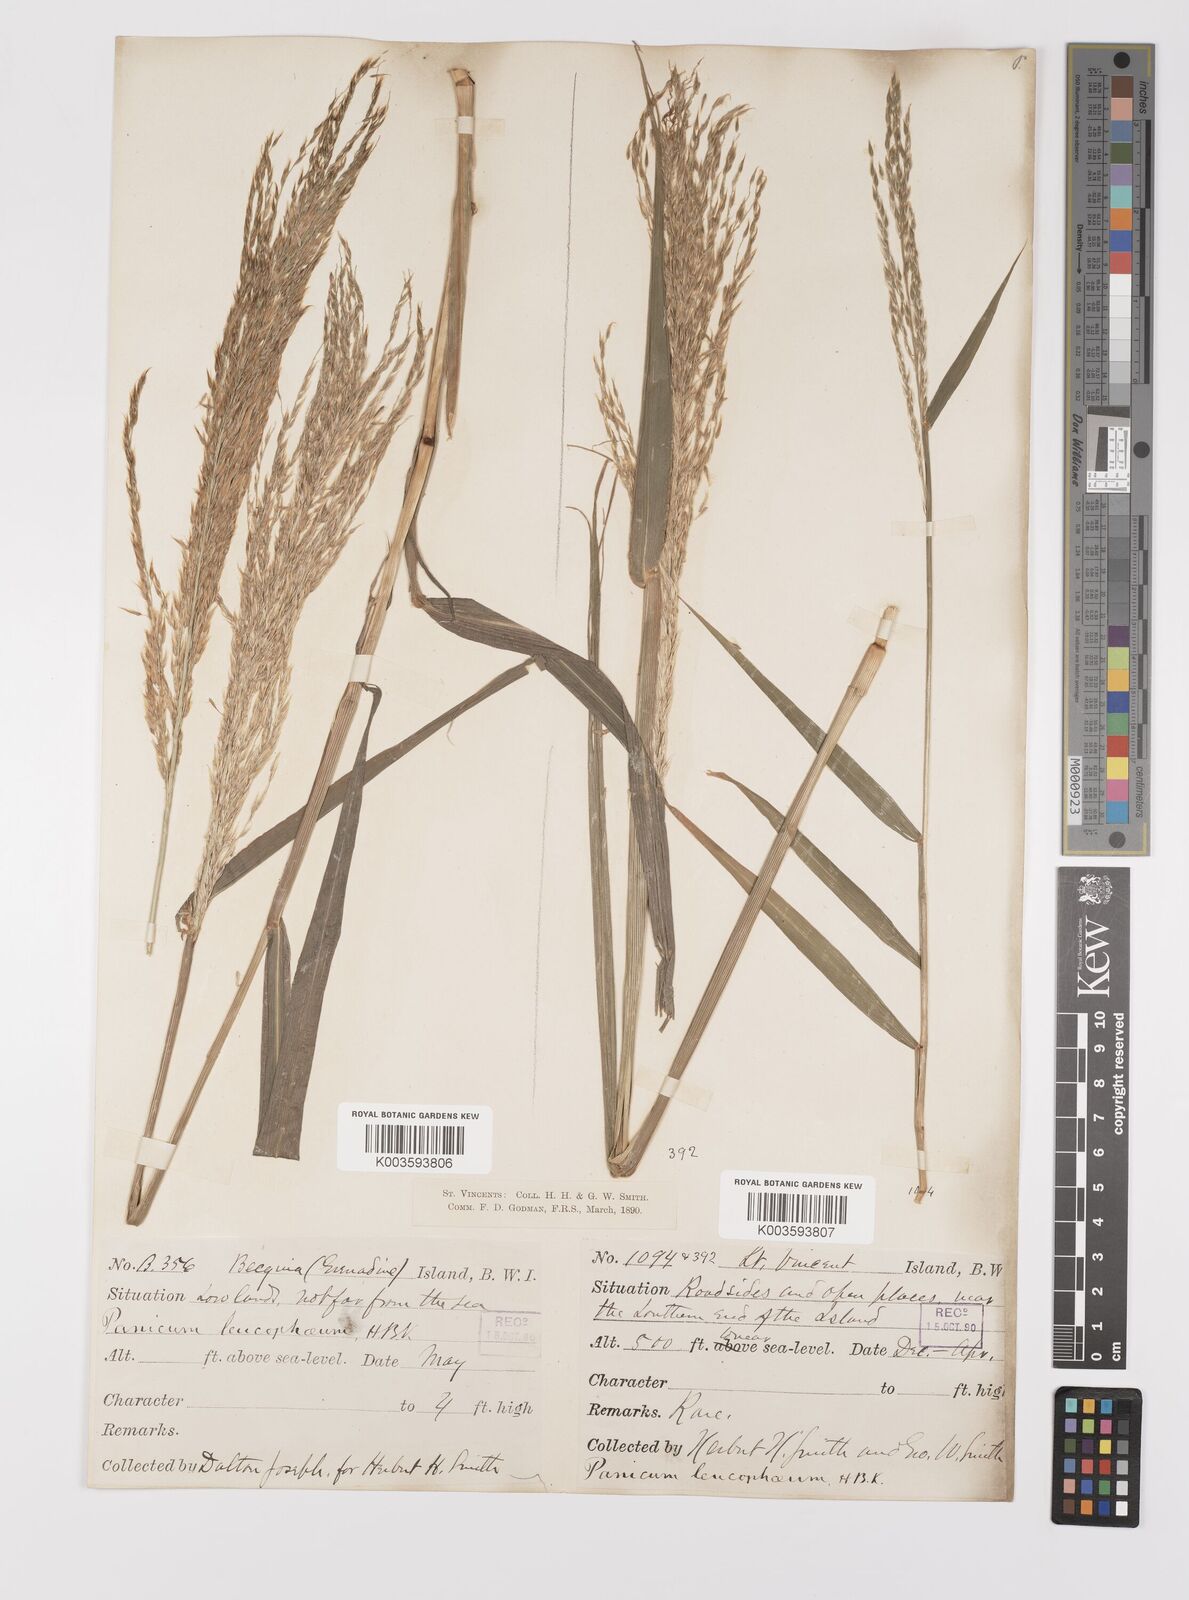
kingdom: Plantae
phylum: Tracheophyta
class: Liliopsida
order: Poales
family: Poaceae
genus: Digitaria
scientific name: Digitaria insularis
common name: Sourgrass
